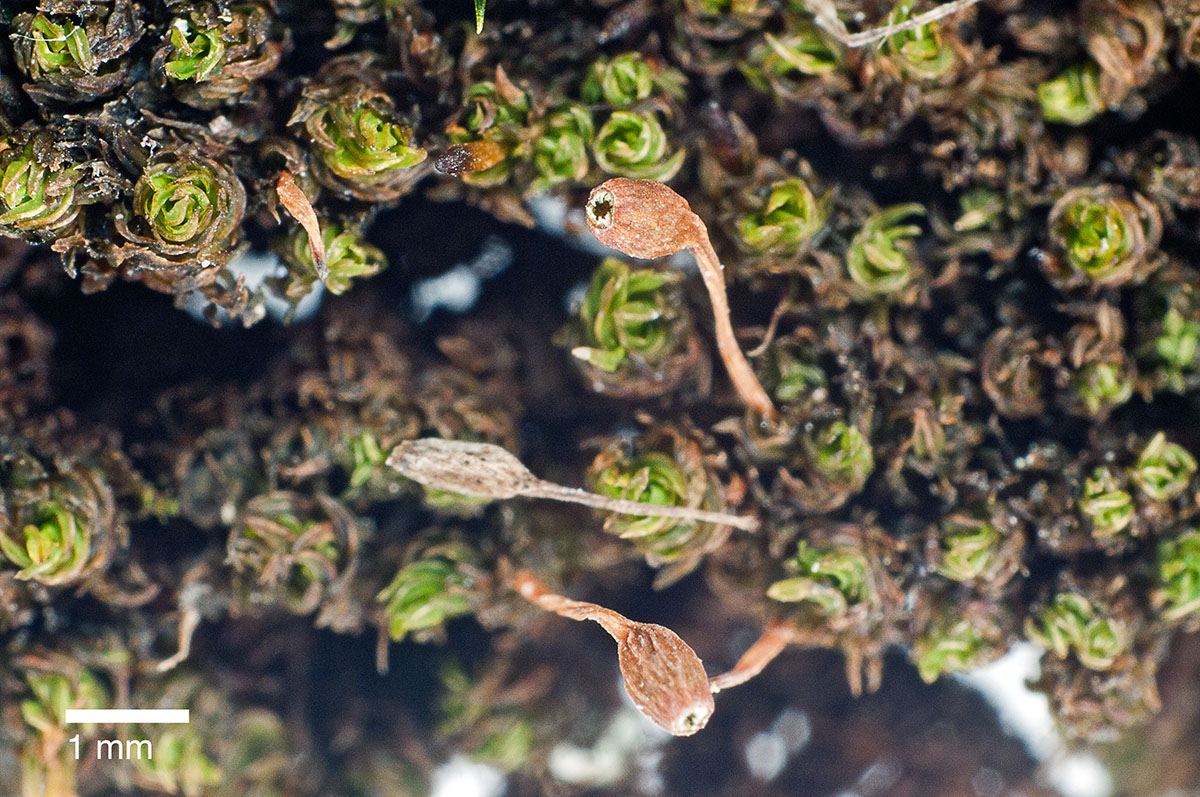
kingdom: Plantae
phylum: Bryophyta
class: Bryopsida
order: Orthotrichales
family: Orthotrichaceae
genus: Macromitrium
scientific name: Macromitrium brevicaule
